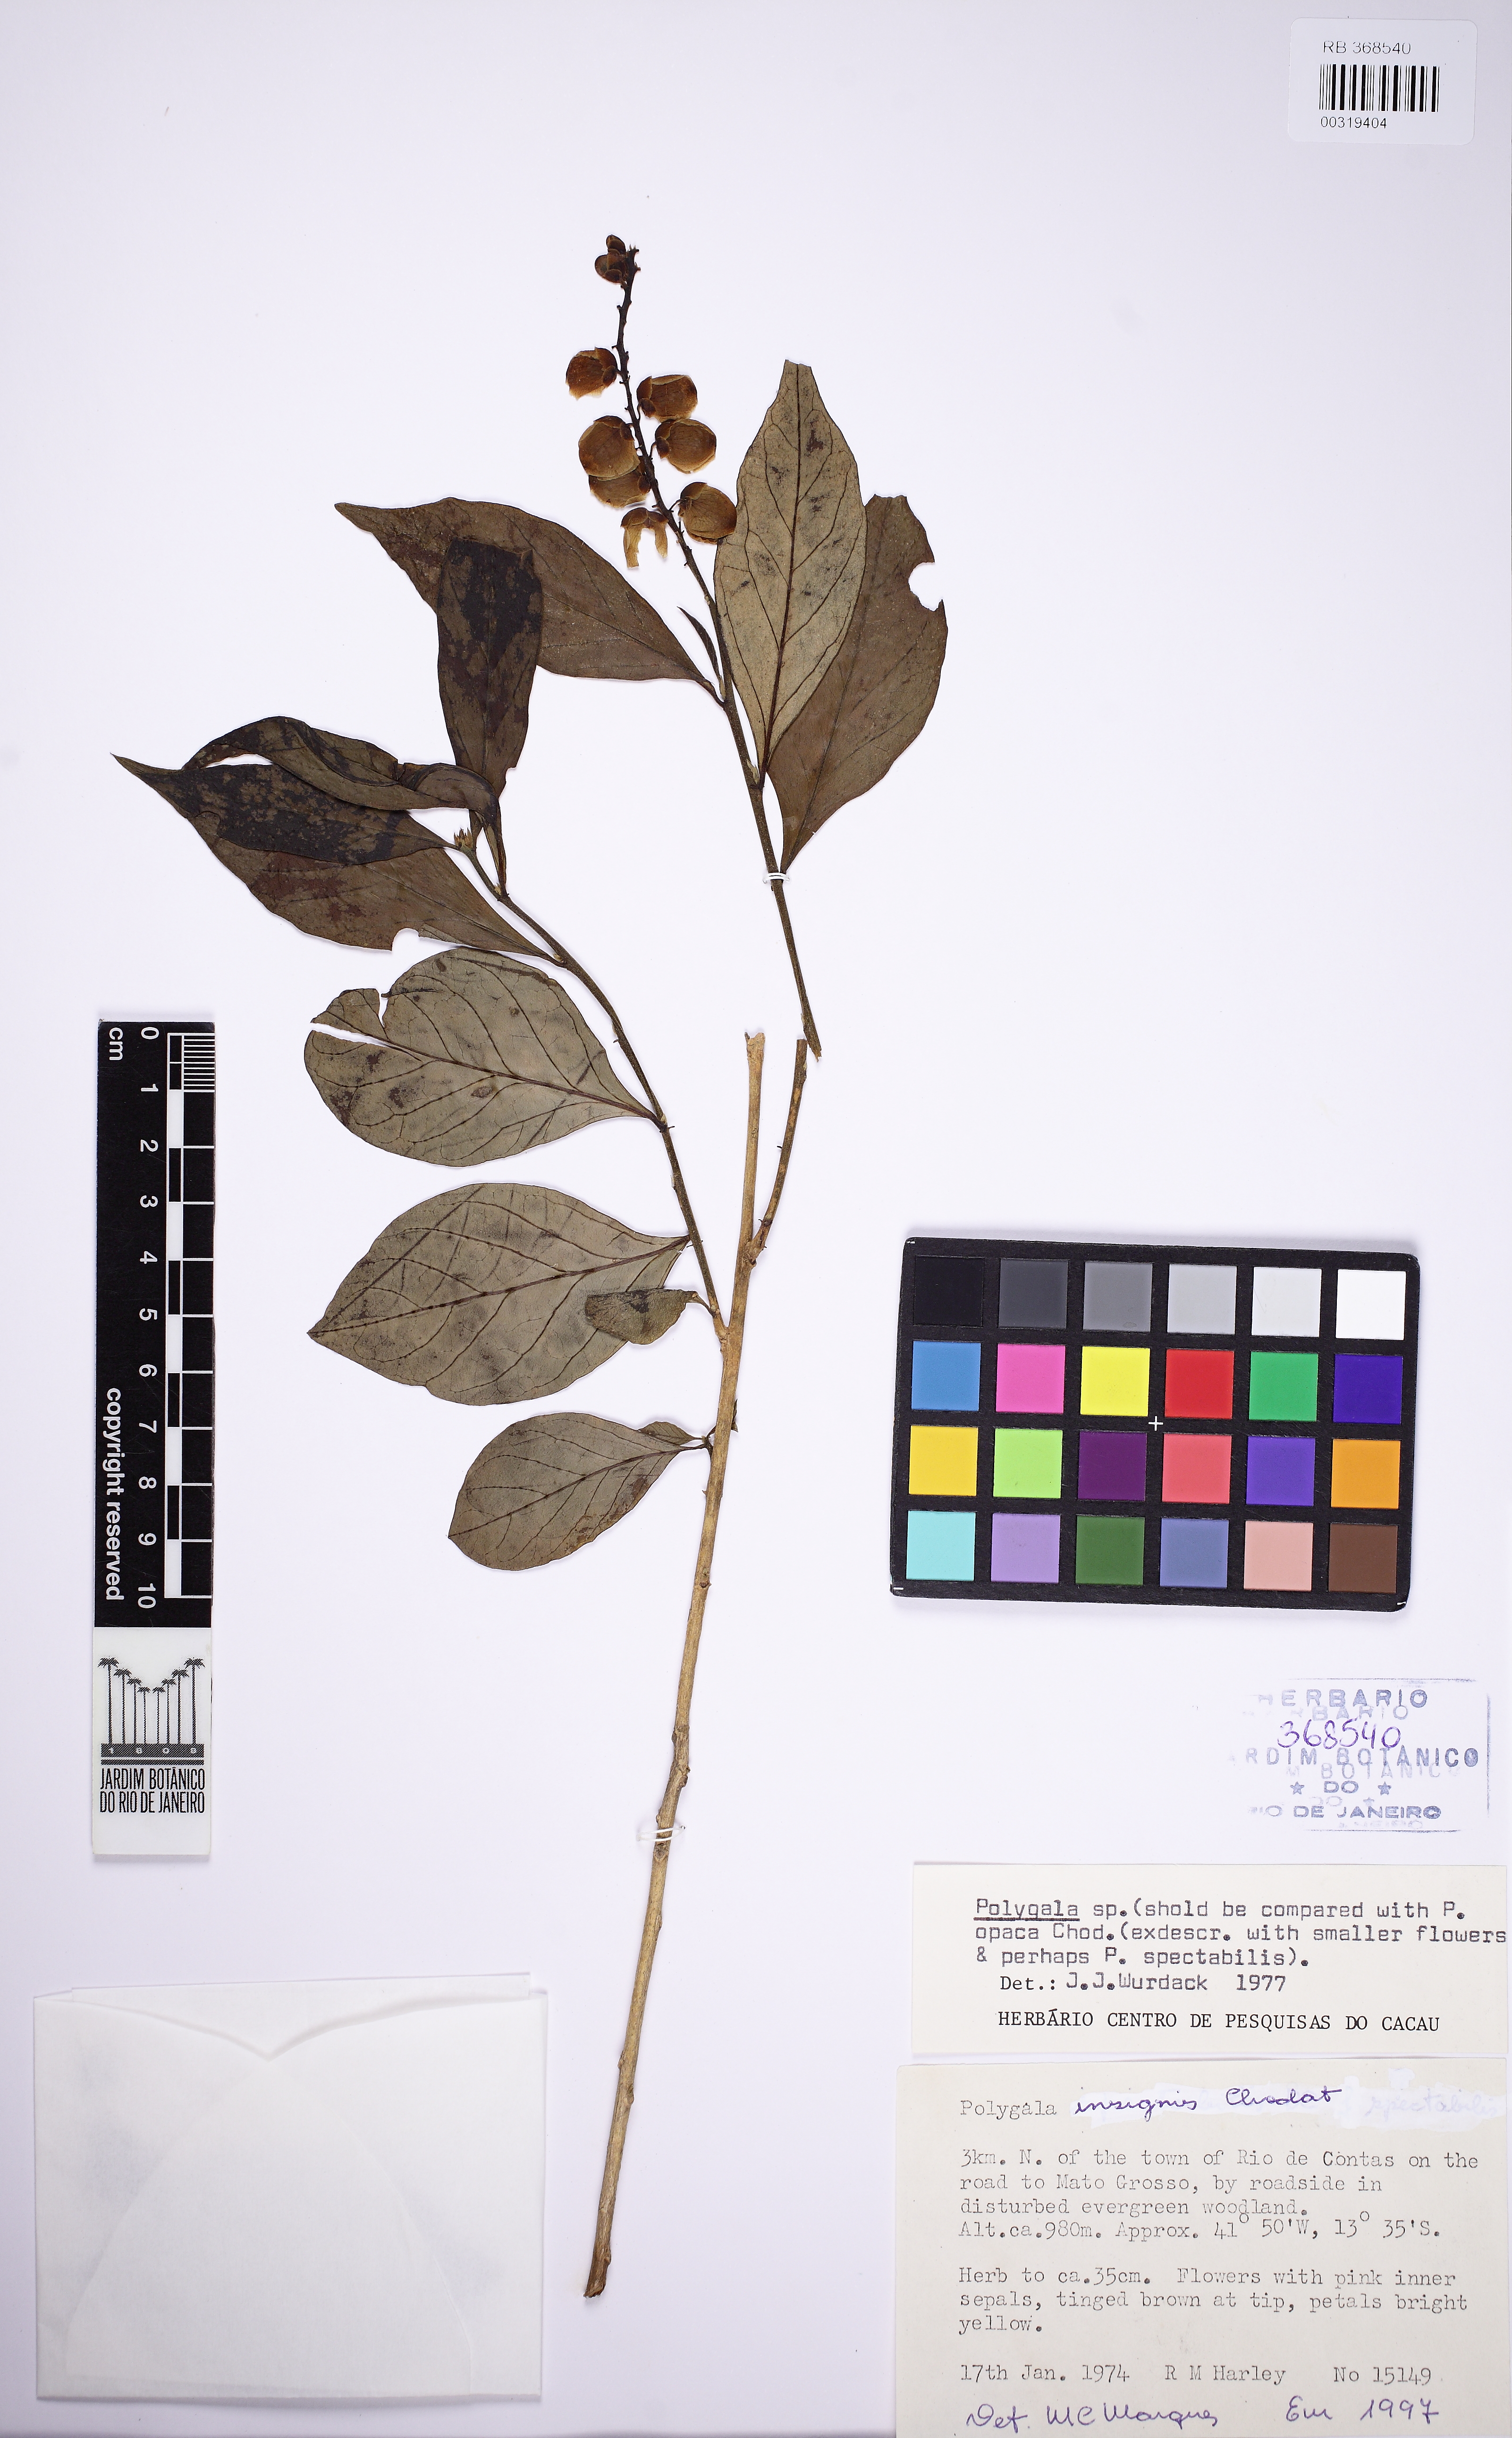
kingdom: Plantae
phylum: Tracheophyta
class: Magnoliopsida
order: Fabales
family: Polygalaceae
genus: Caamembeca
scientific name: Caamembeca insignis
